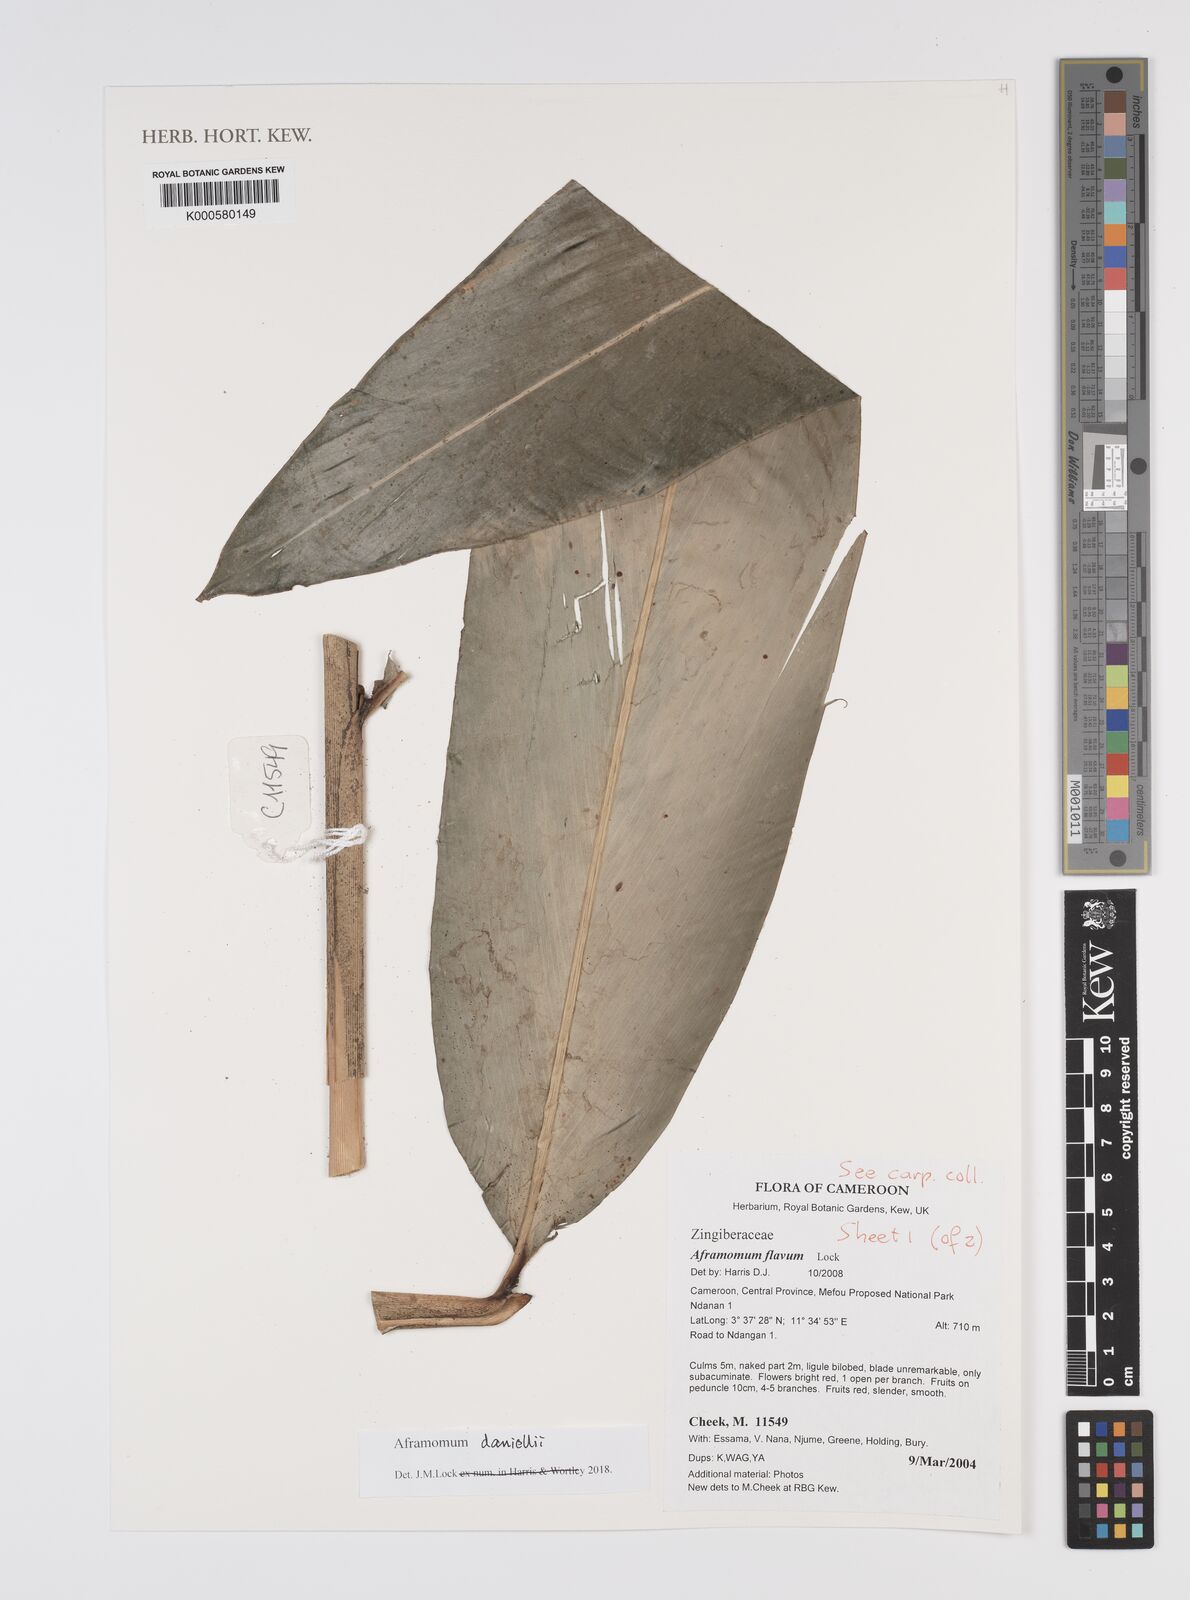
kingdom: Plantae
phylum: Tracheophyta
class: Liliopsida
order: Zingiberales
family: Zingiberaceae
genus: Aframomum
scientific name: Aframomum daniellii
